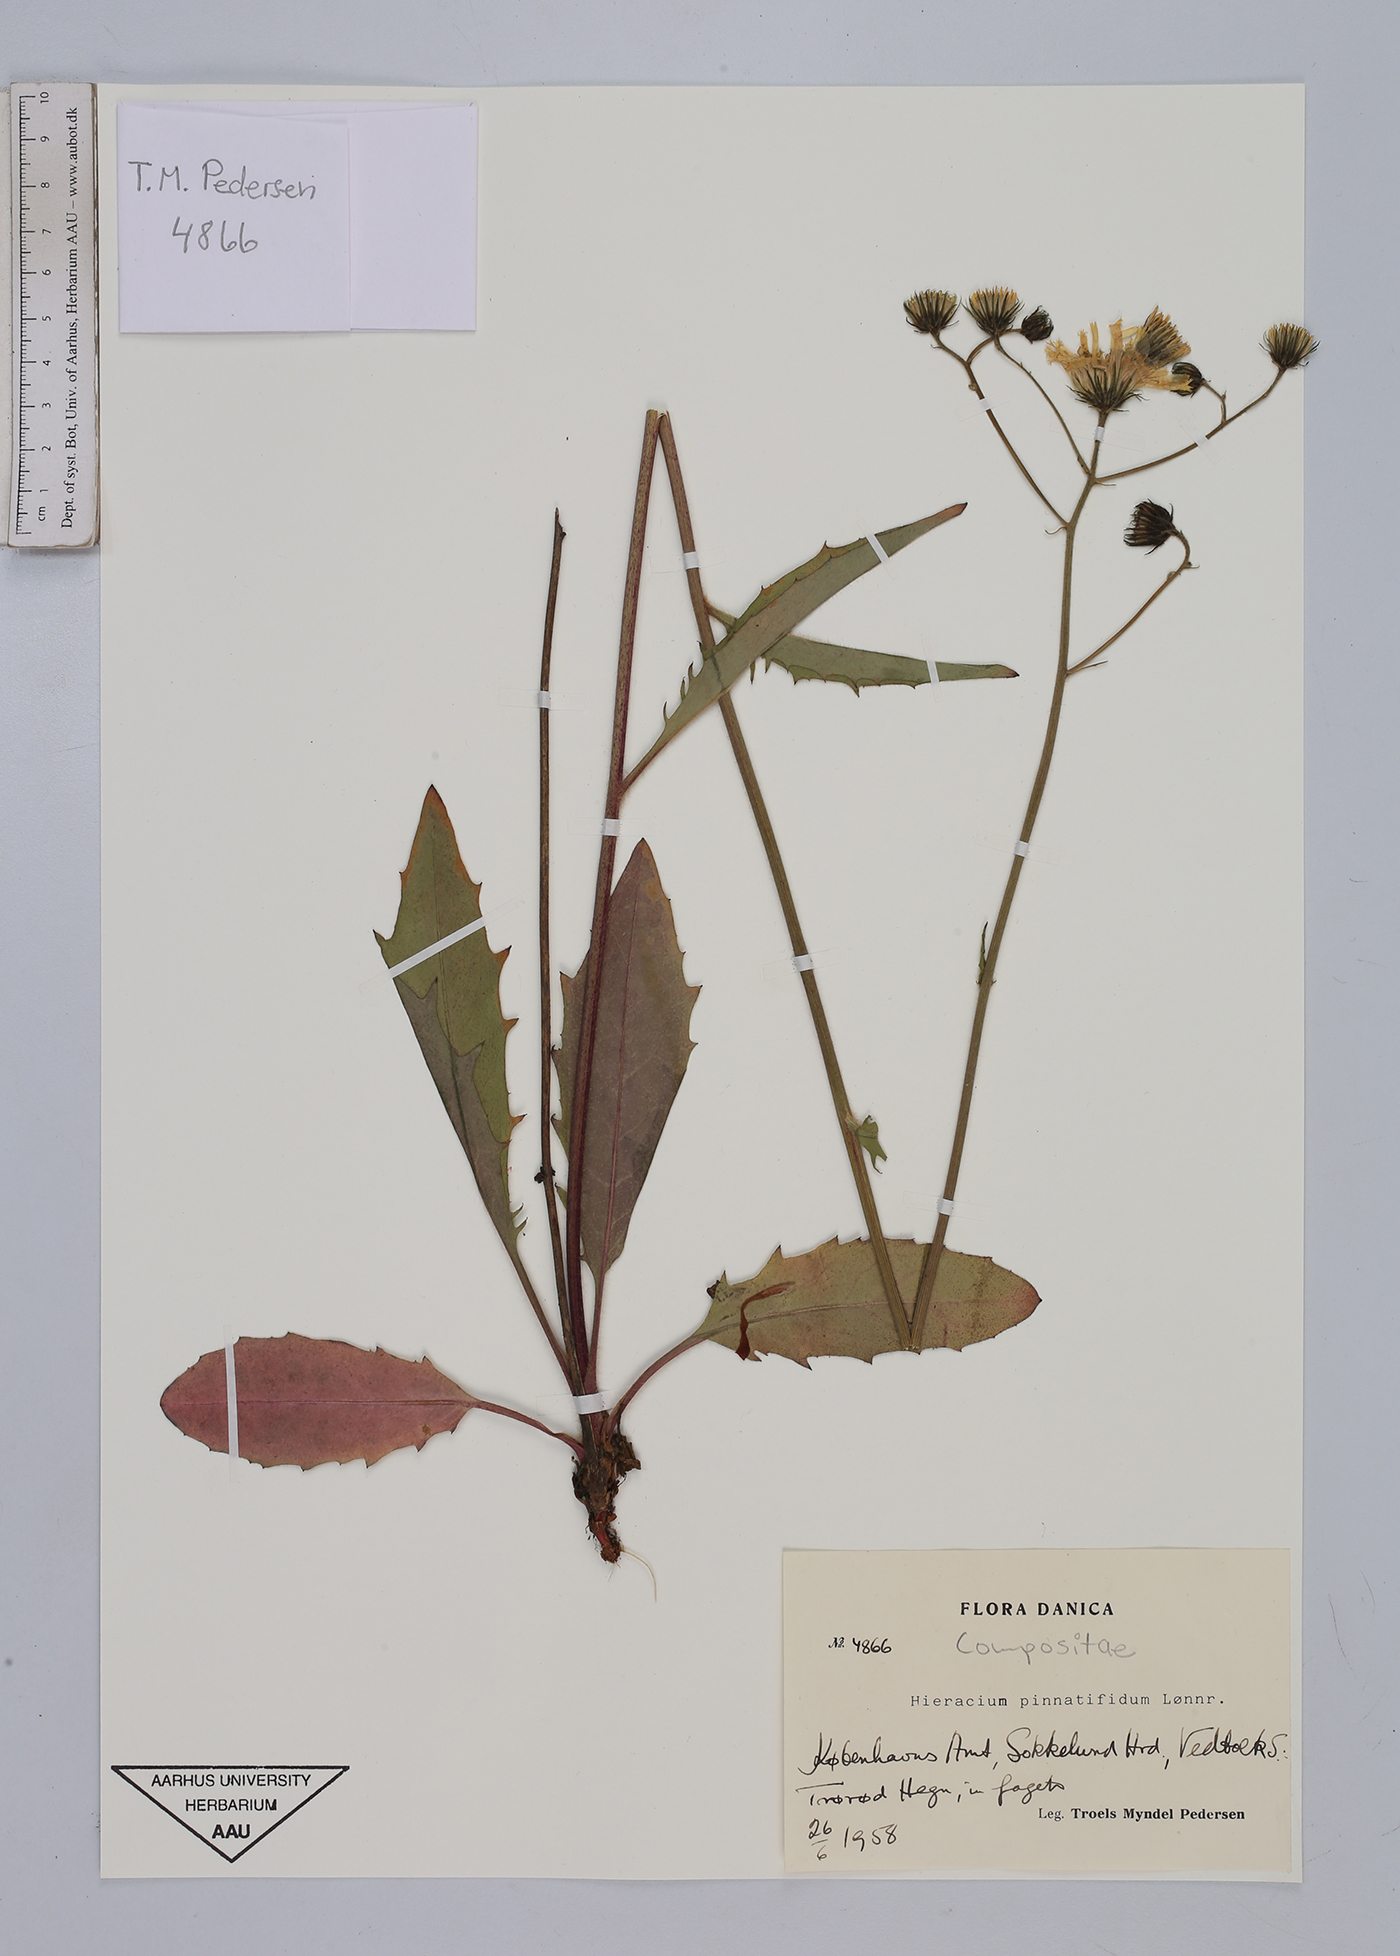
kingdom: Plantae
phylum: Tracheophyta
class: Magnoliopsida
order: Asterales
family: Asteraceae
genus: Hieracium
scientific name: Hieracium lachenalii
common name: Common hawkweed
